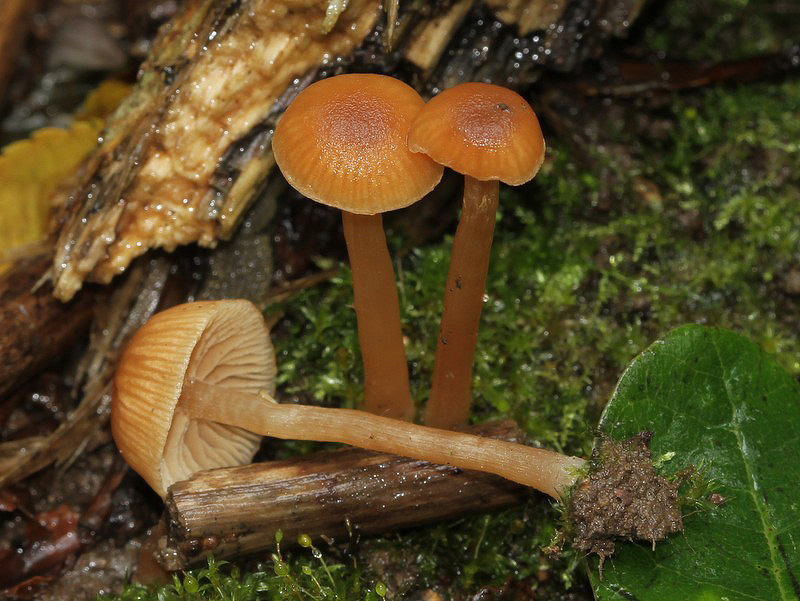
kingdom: Fungi
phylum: Basidiomycota
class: Agaricomycetes
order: Agaricales
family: Tubariaceae
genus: Tubaria
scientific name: Tubaria furfuracea
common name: kliddet fnughat
